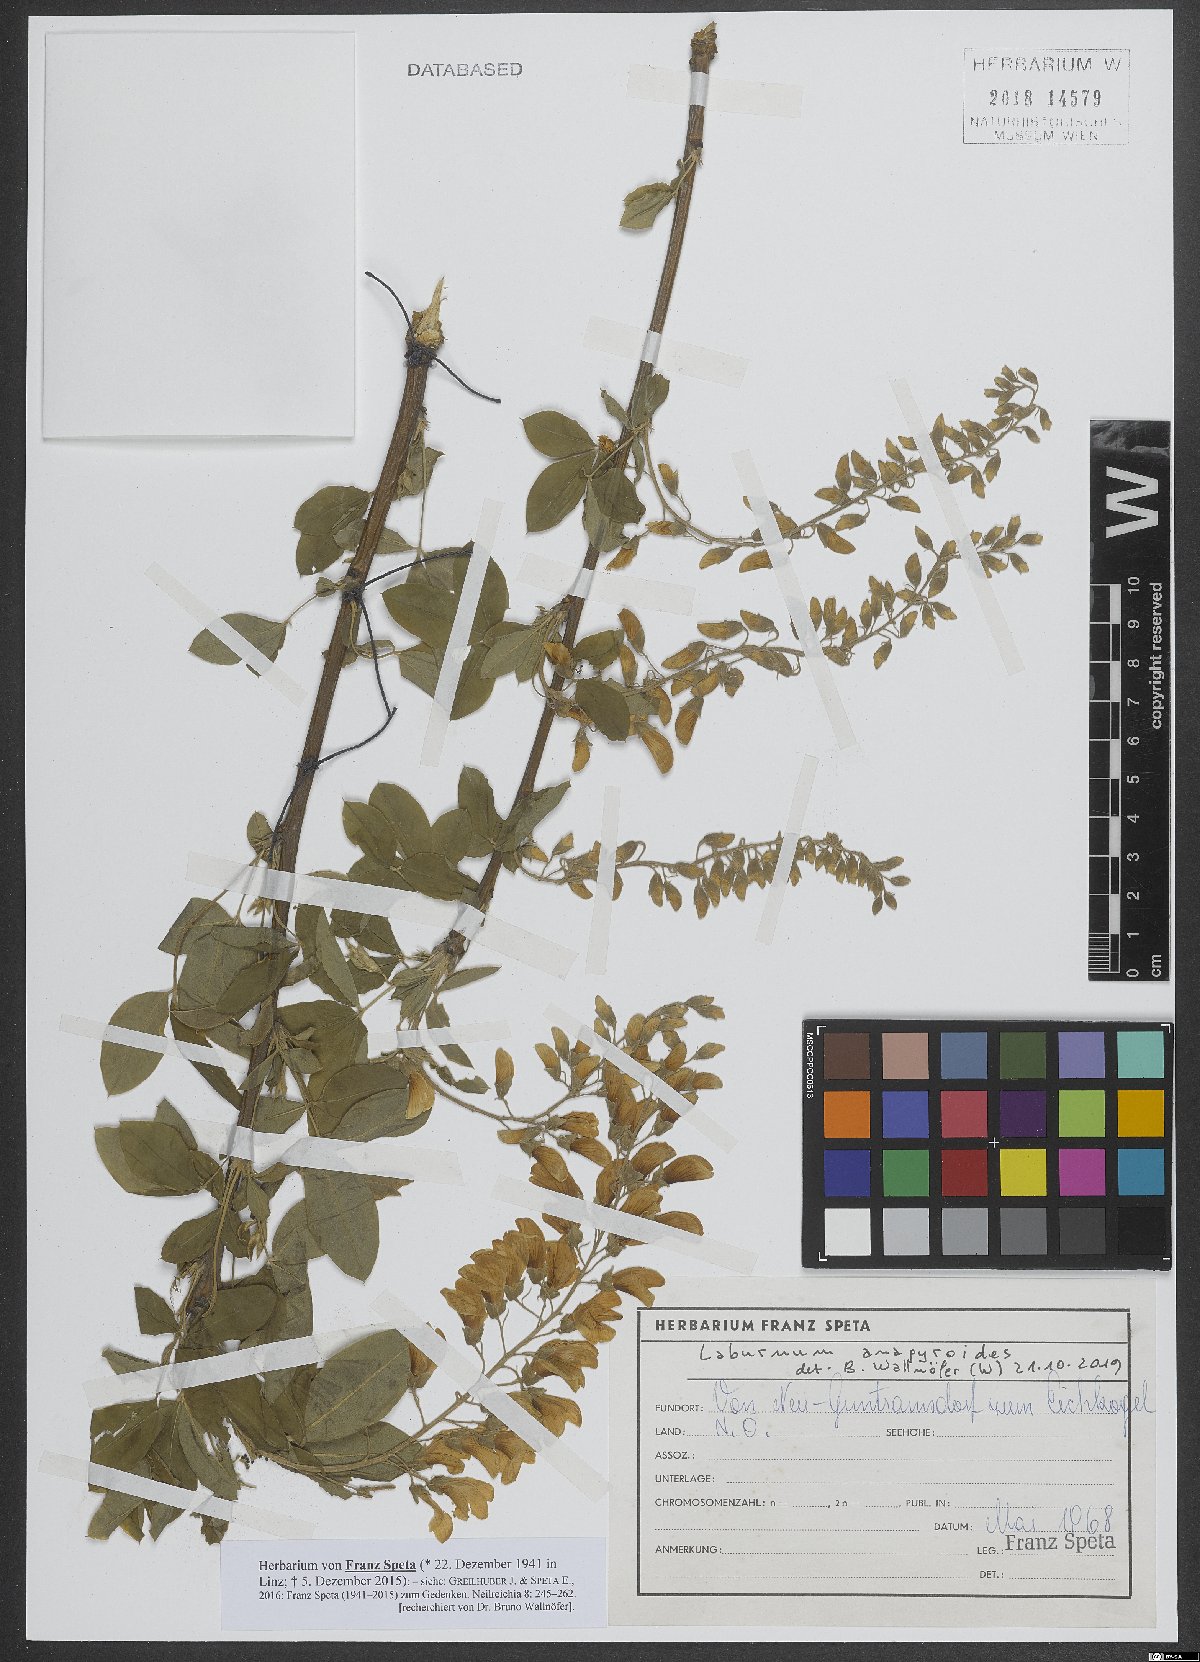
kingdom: Plantae
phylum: Tracheophyta
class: Magnoliopsida
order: Fabales
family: Fabaceae
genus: Laburnum
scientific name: Laburnum anagyroides
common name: Laburnum
